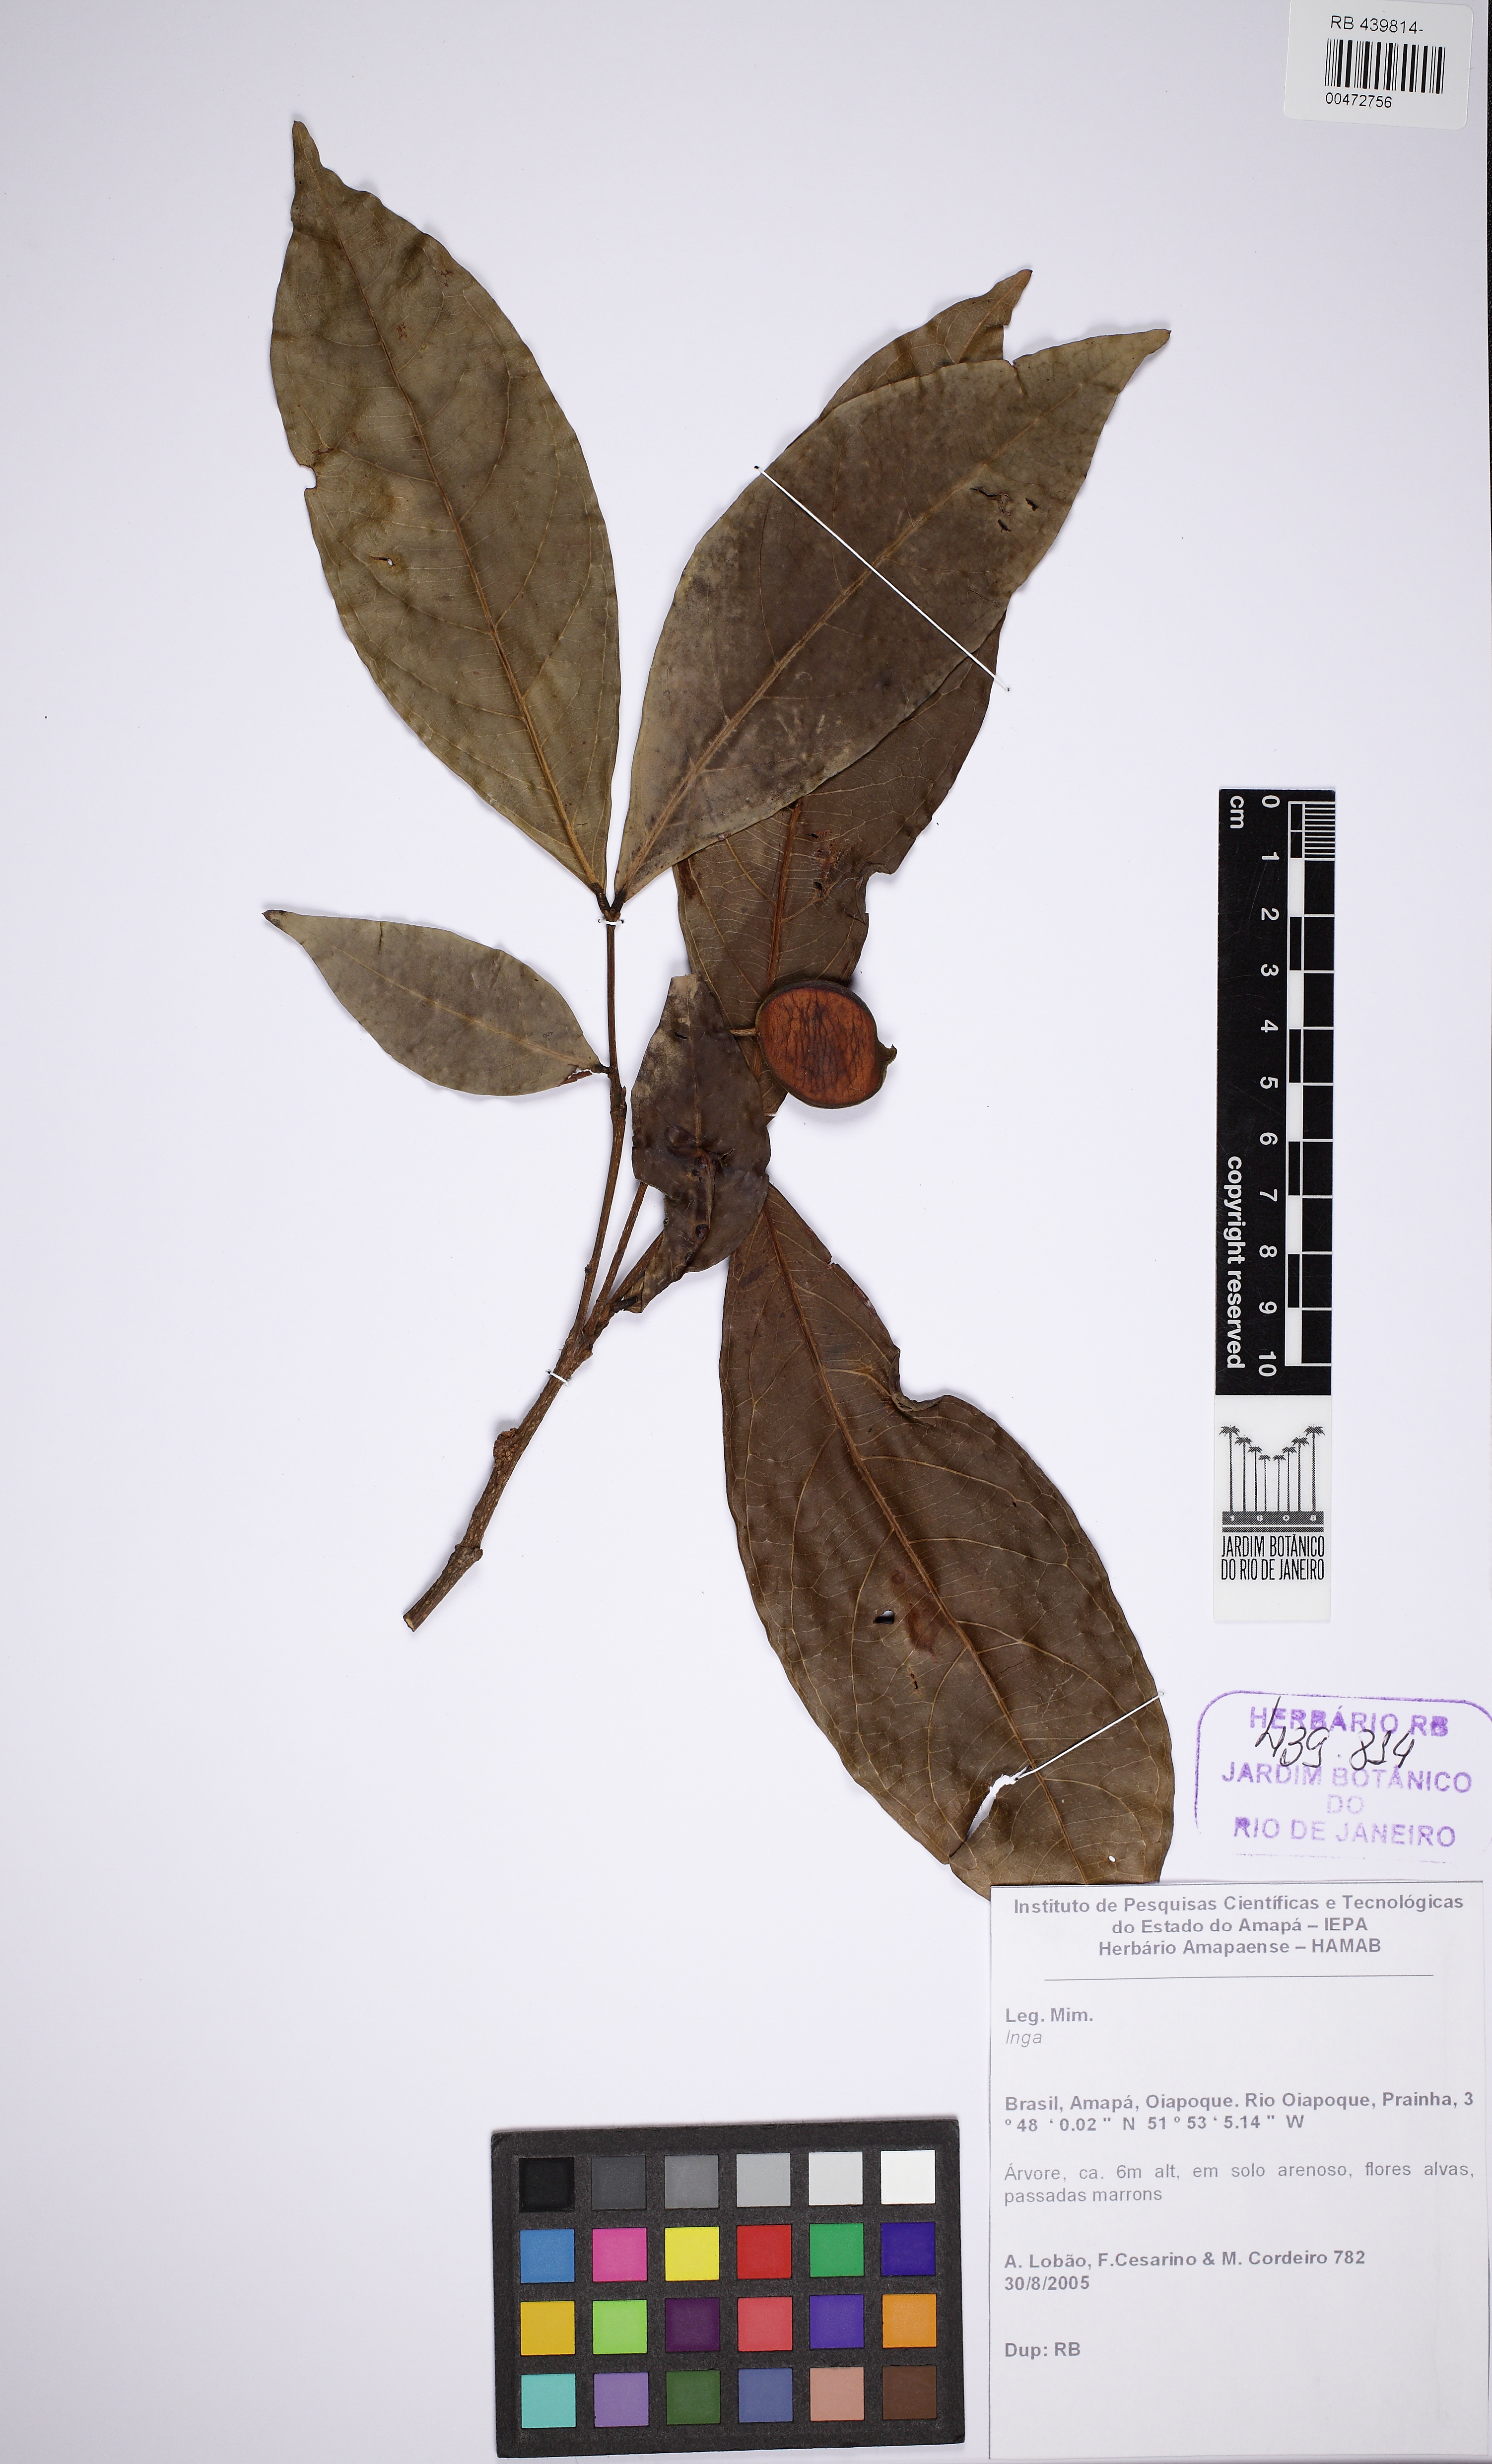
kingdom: Plantae
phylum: Tracheophyta
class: Magnoliopsida
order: Fabales
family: Fabaceae
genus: Inga
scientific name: Inga
